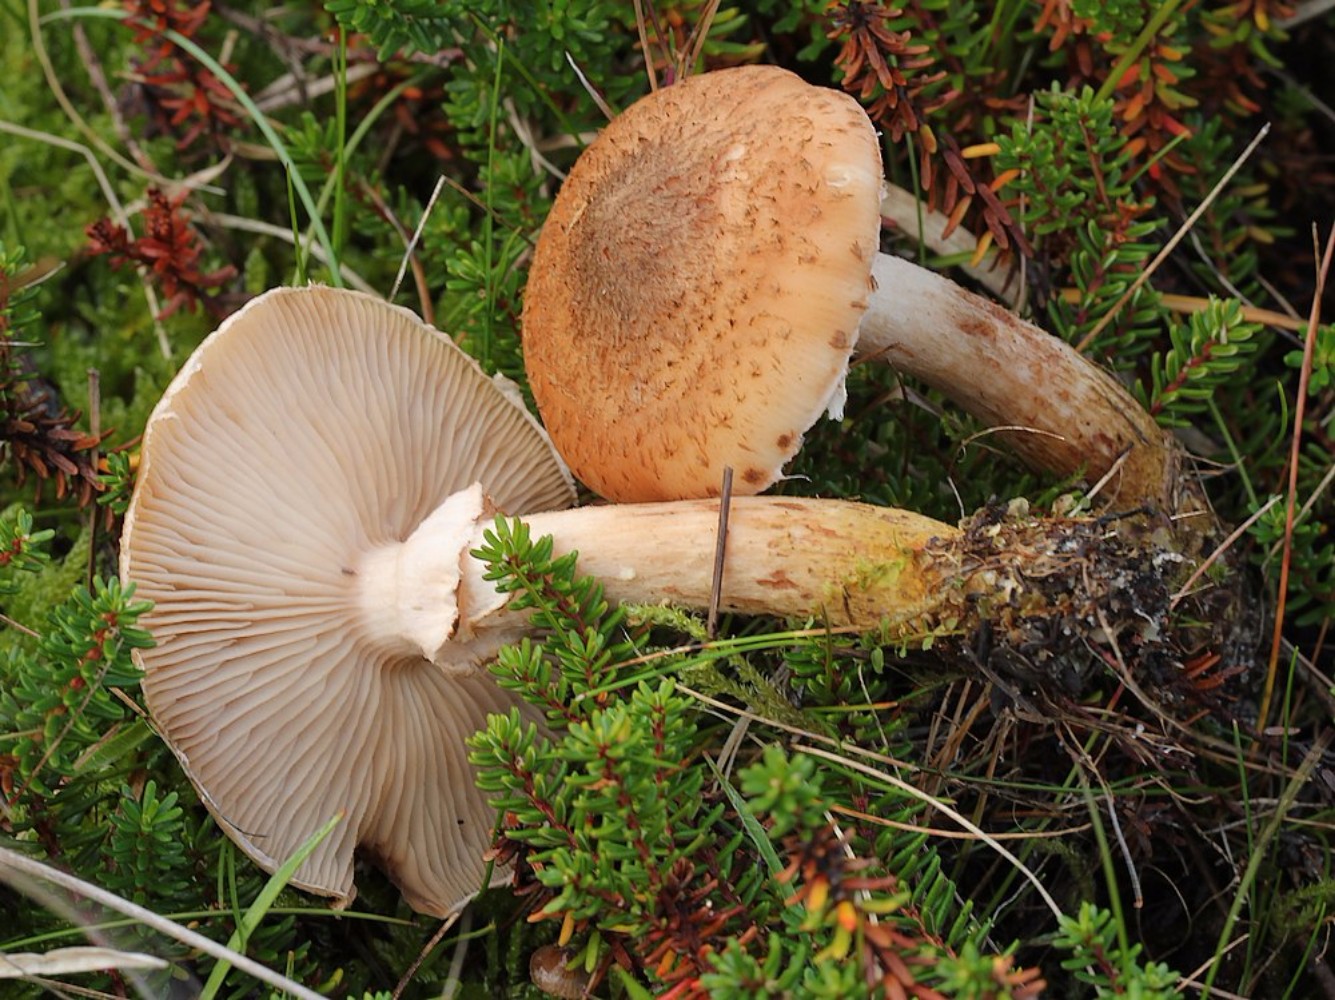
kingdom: Fungi
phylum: Basidiomycota
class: Agaricomycetes
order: Agaricales
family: Physalacriaceae
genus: Armillaria
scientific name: Armillaria
